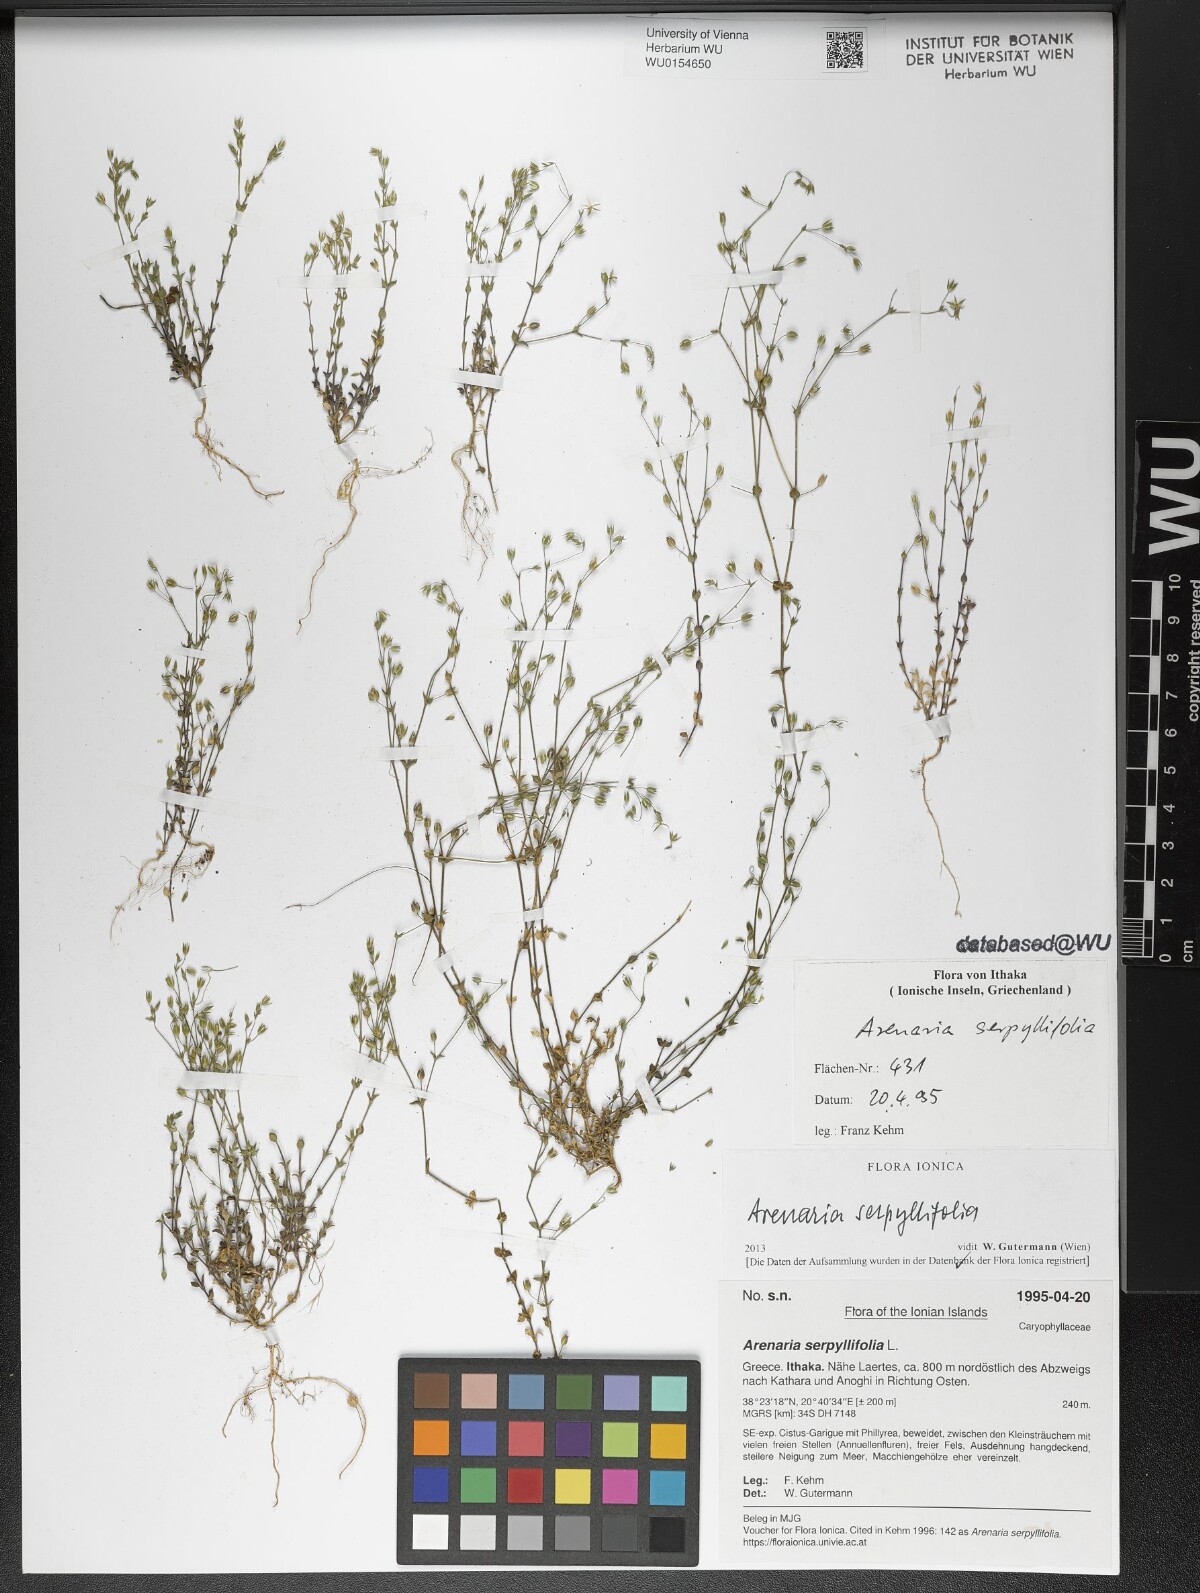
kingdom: Plantae
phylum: Tracheophyta
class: Magnoliopsida
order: Caryophyllales
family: Caryophyllaceae
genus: Arenaria
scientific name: Arenaria serpyllifolia
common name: Thyme-leaved sandwort
